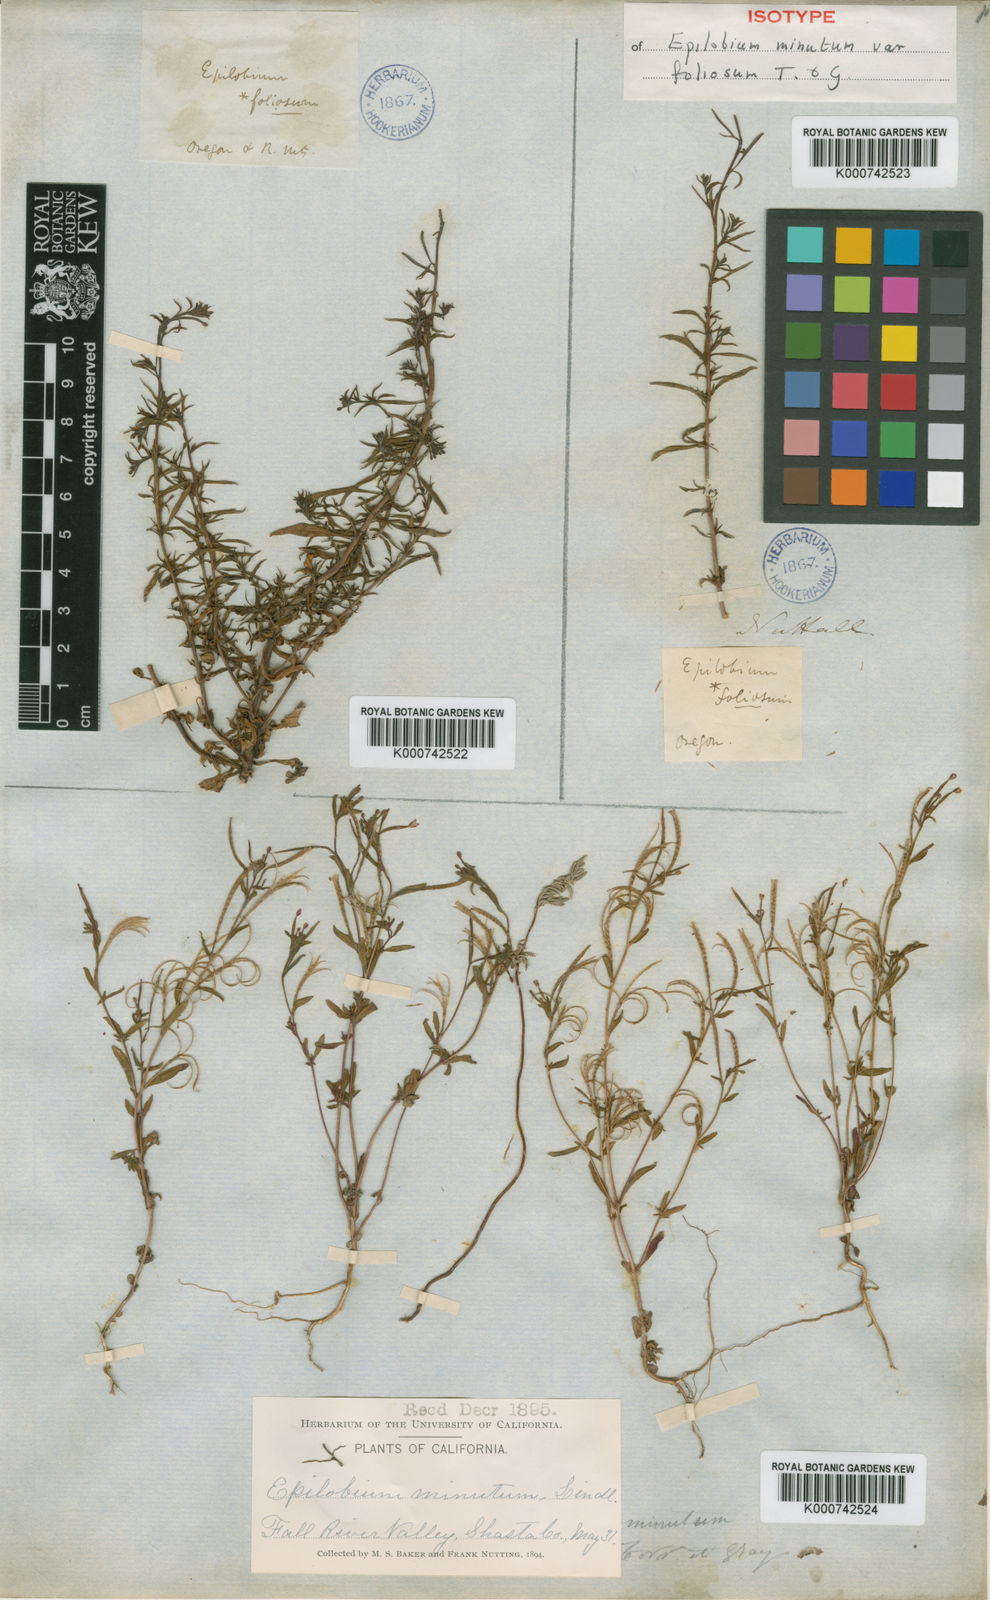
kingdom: Plantae
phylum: Tracheophyta
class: Magnoliopsida
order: Myrtales
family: Onagraceae
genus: Epilobium
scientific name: Epilobium
